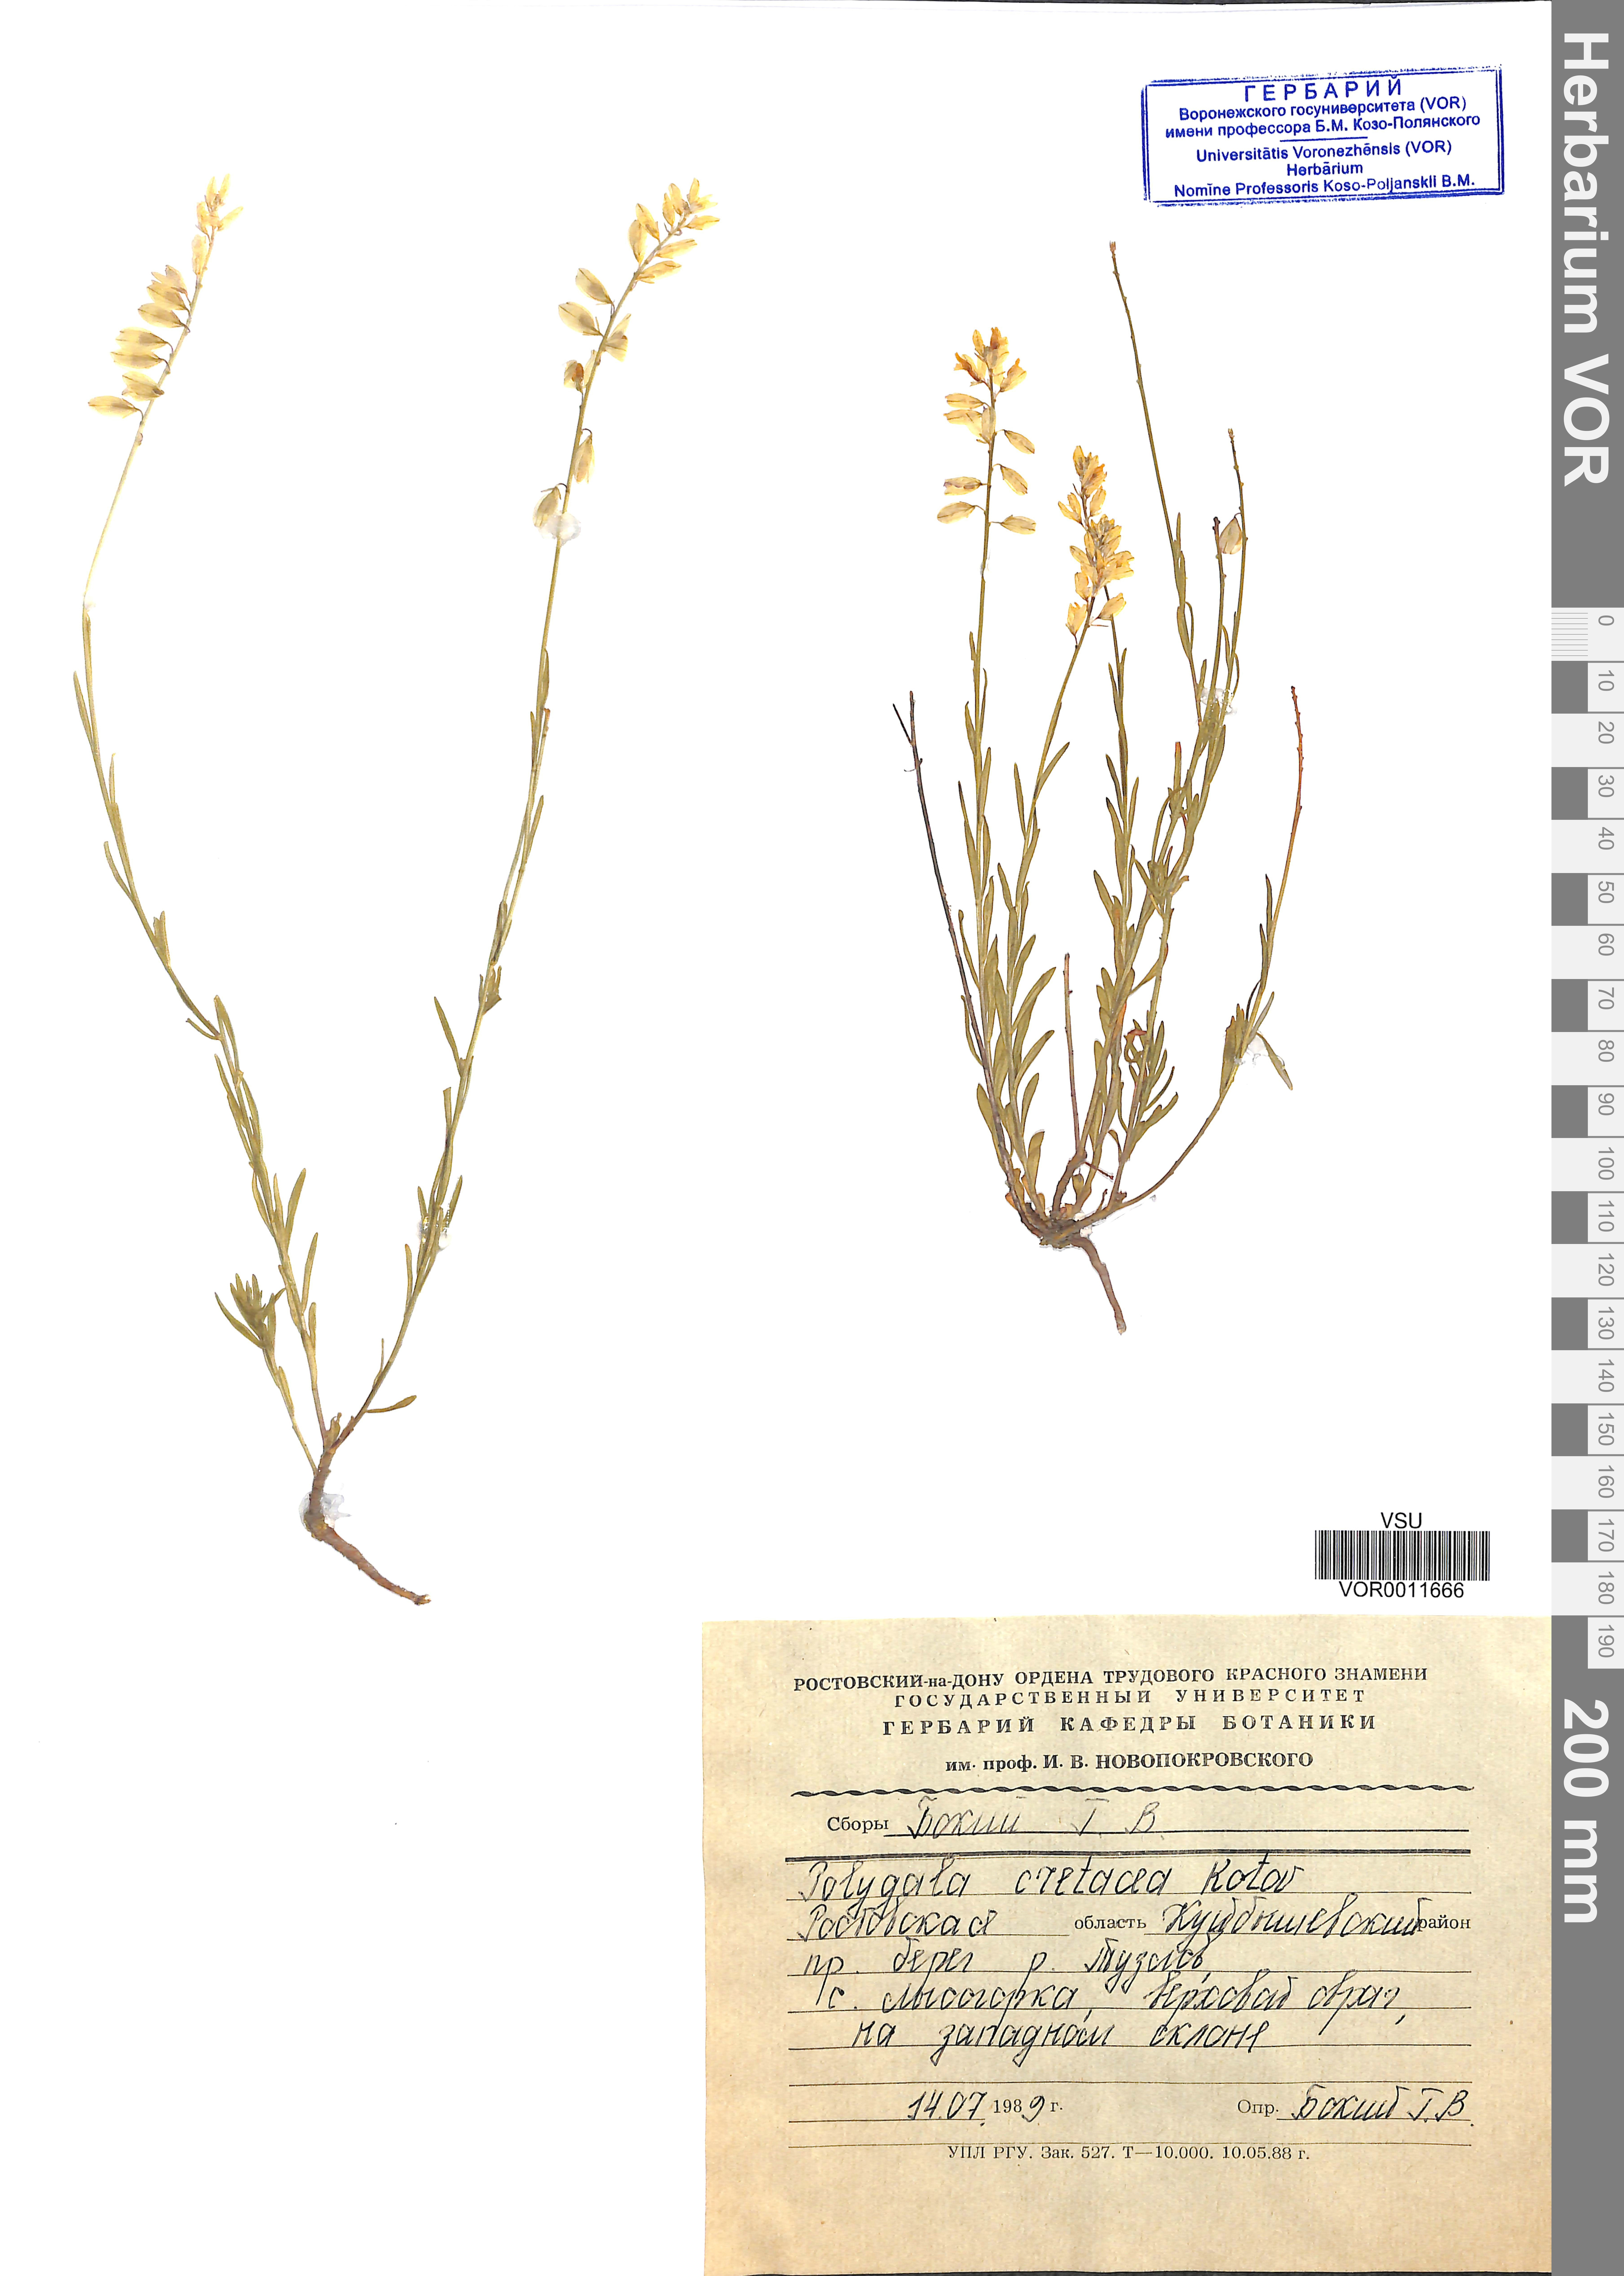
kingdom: Plantae
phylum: Tracheophyta
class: Magnoliopsida
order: Fabales
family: Polygalaceae
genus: Polygala
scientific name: Polygala nicaeensis
